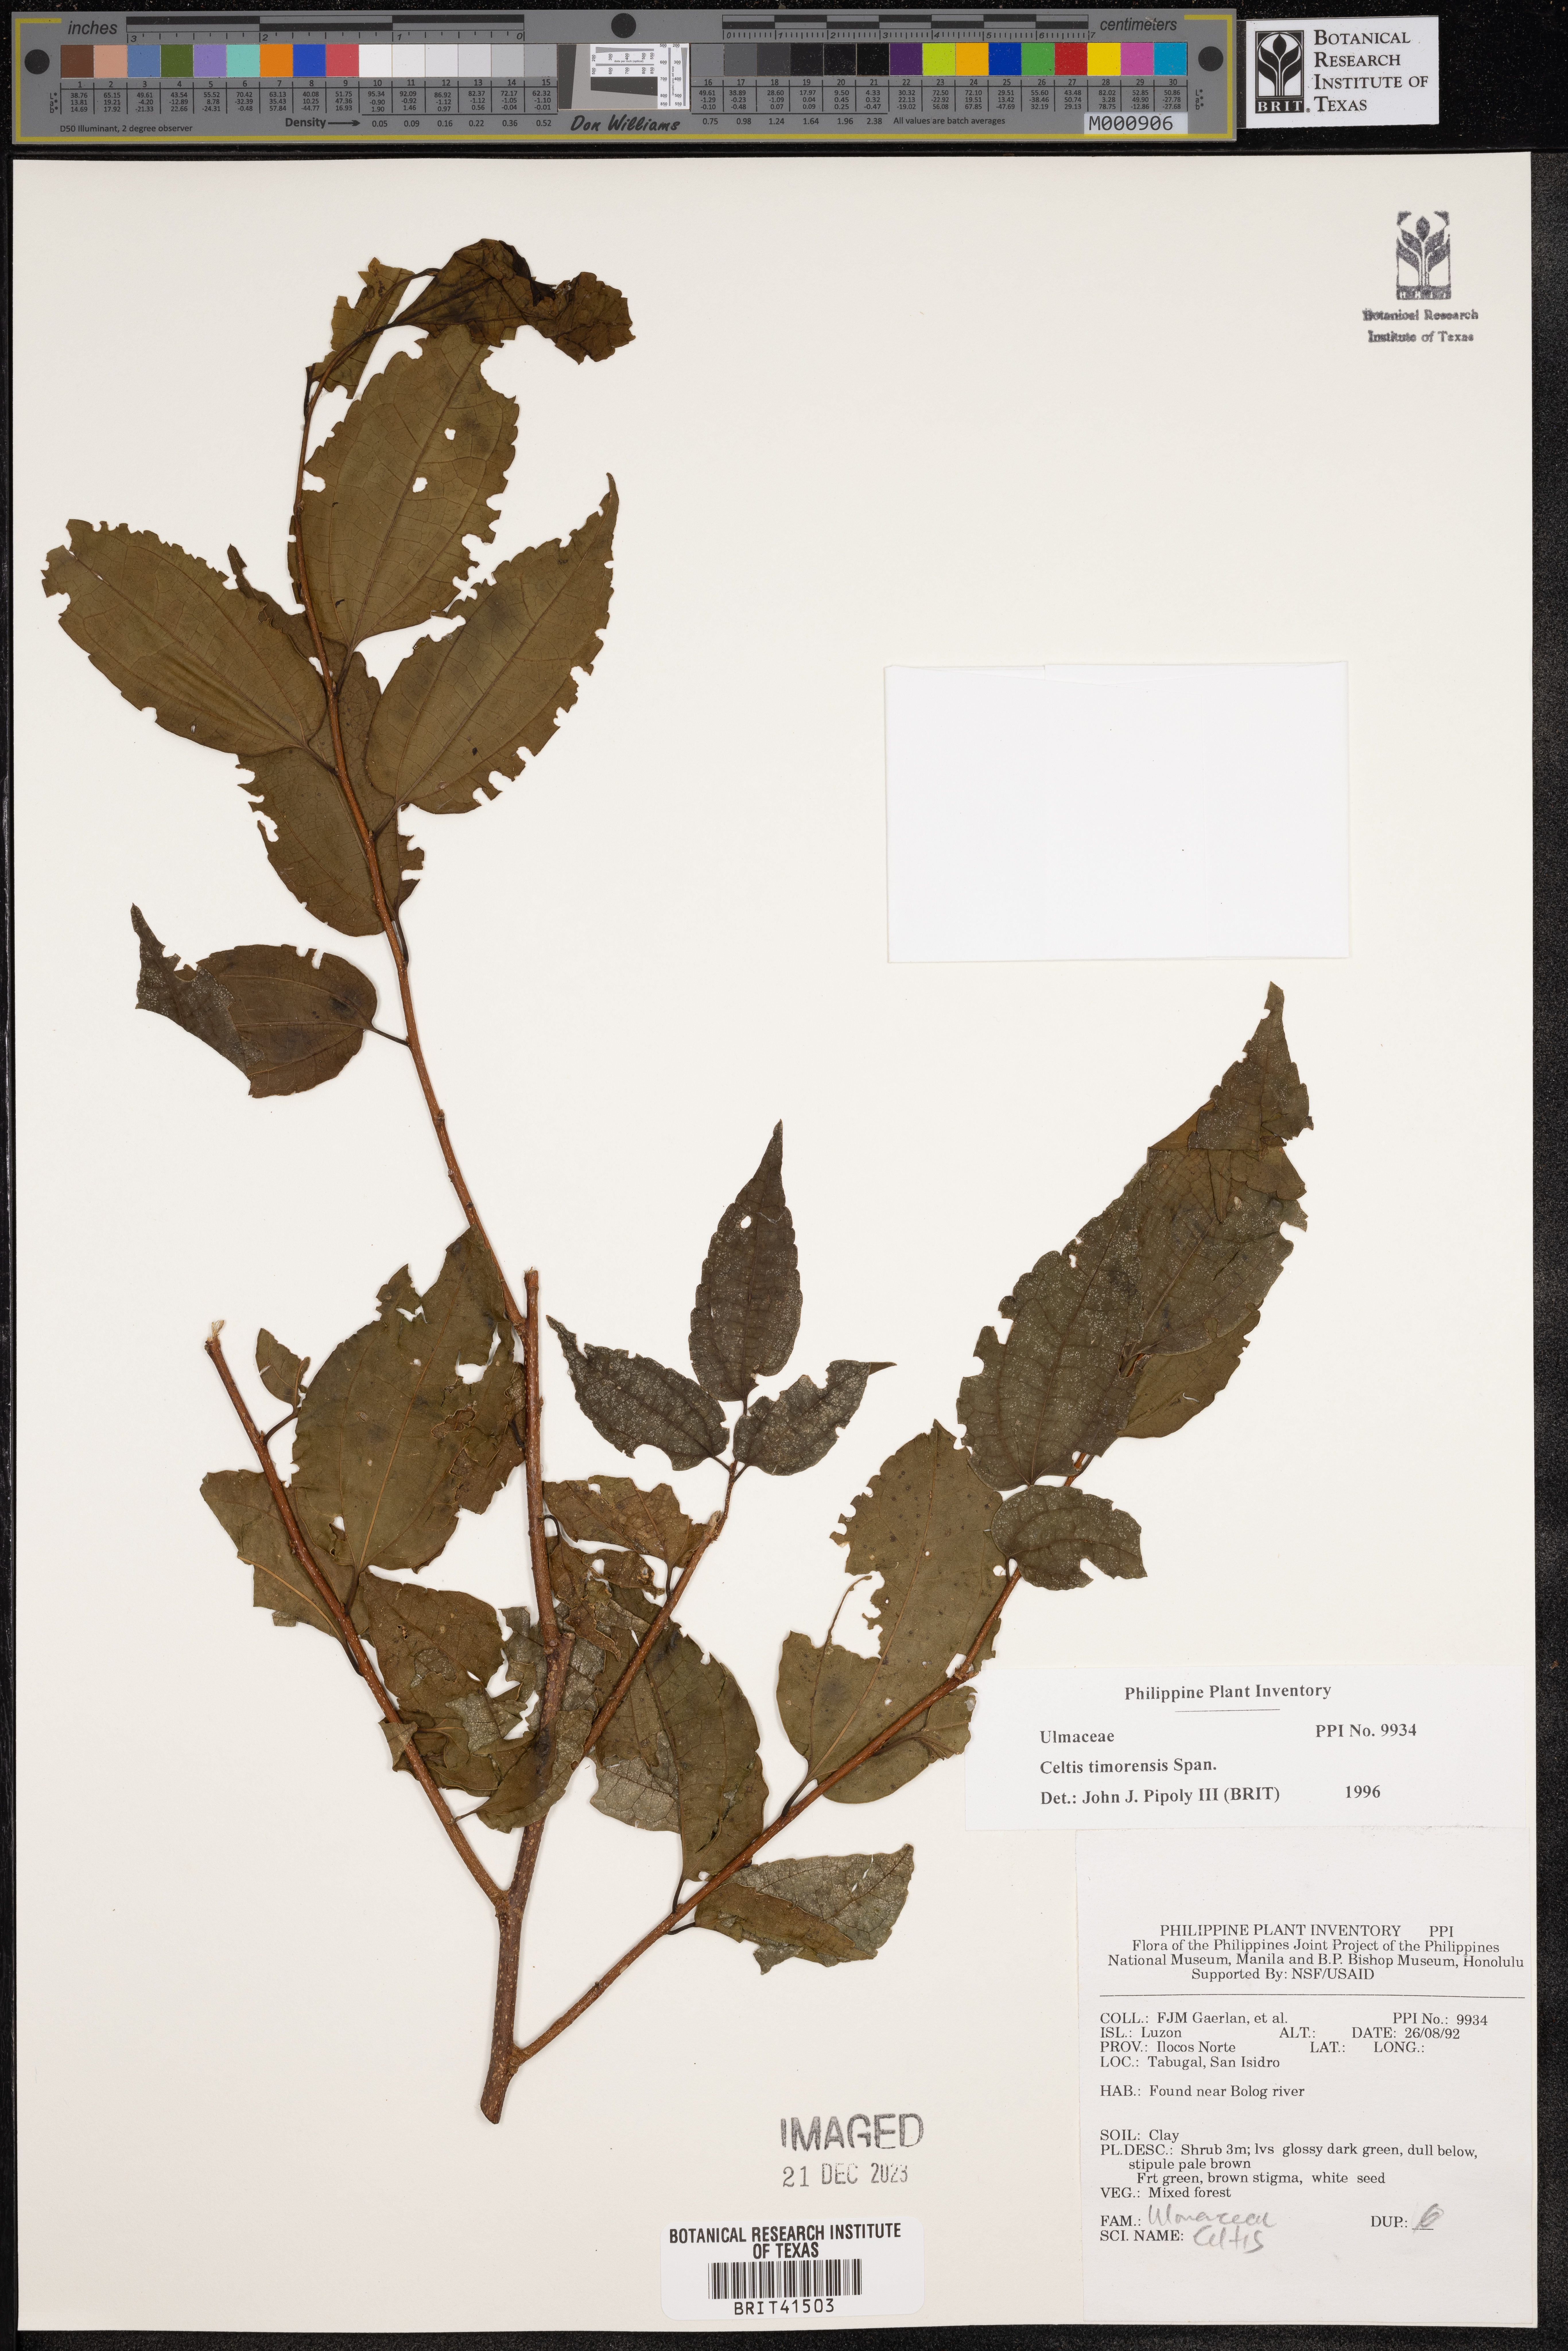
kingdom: Plantae
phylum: Tracheophyta
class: Magnoliopsida
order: Rosales
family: Cannabaceae
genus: Celtis
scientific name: Celtis timorensis
